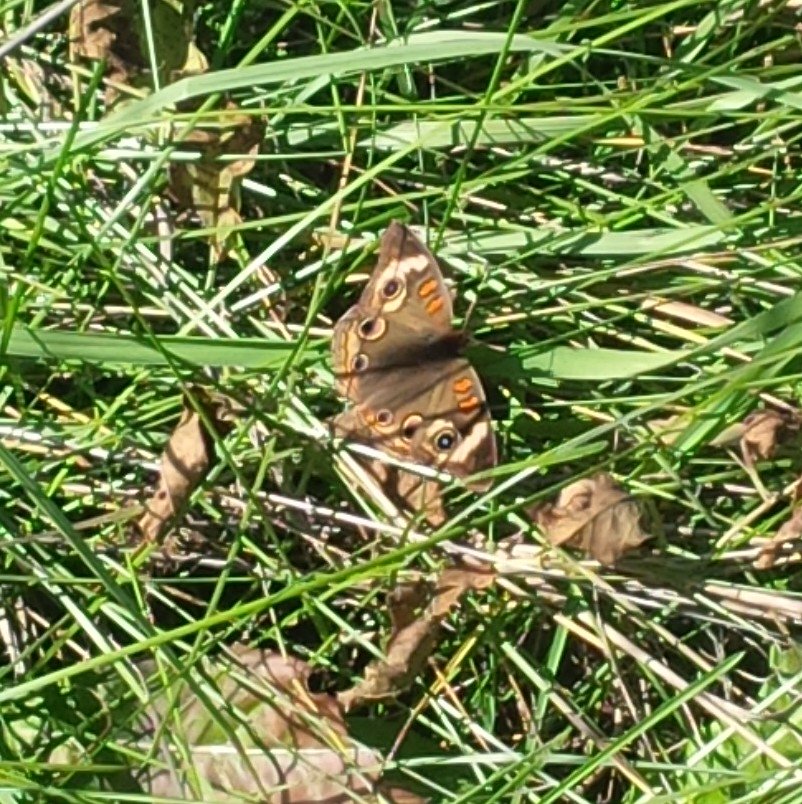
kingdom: Animalia
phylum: Arthropoda
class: Insecta
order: Lepidoptera
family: Nymphalidae
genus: Junonia
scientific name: Junonia coenia
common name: Common Buckeye
